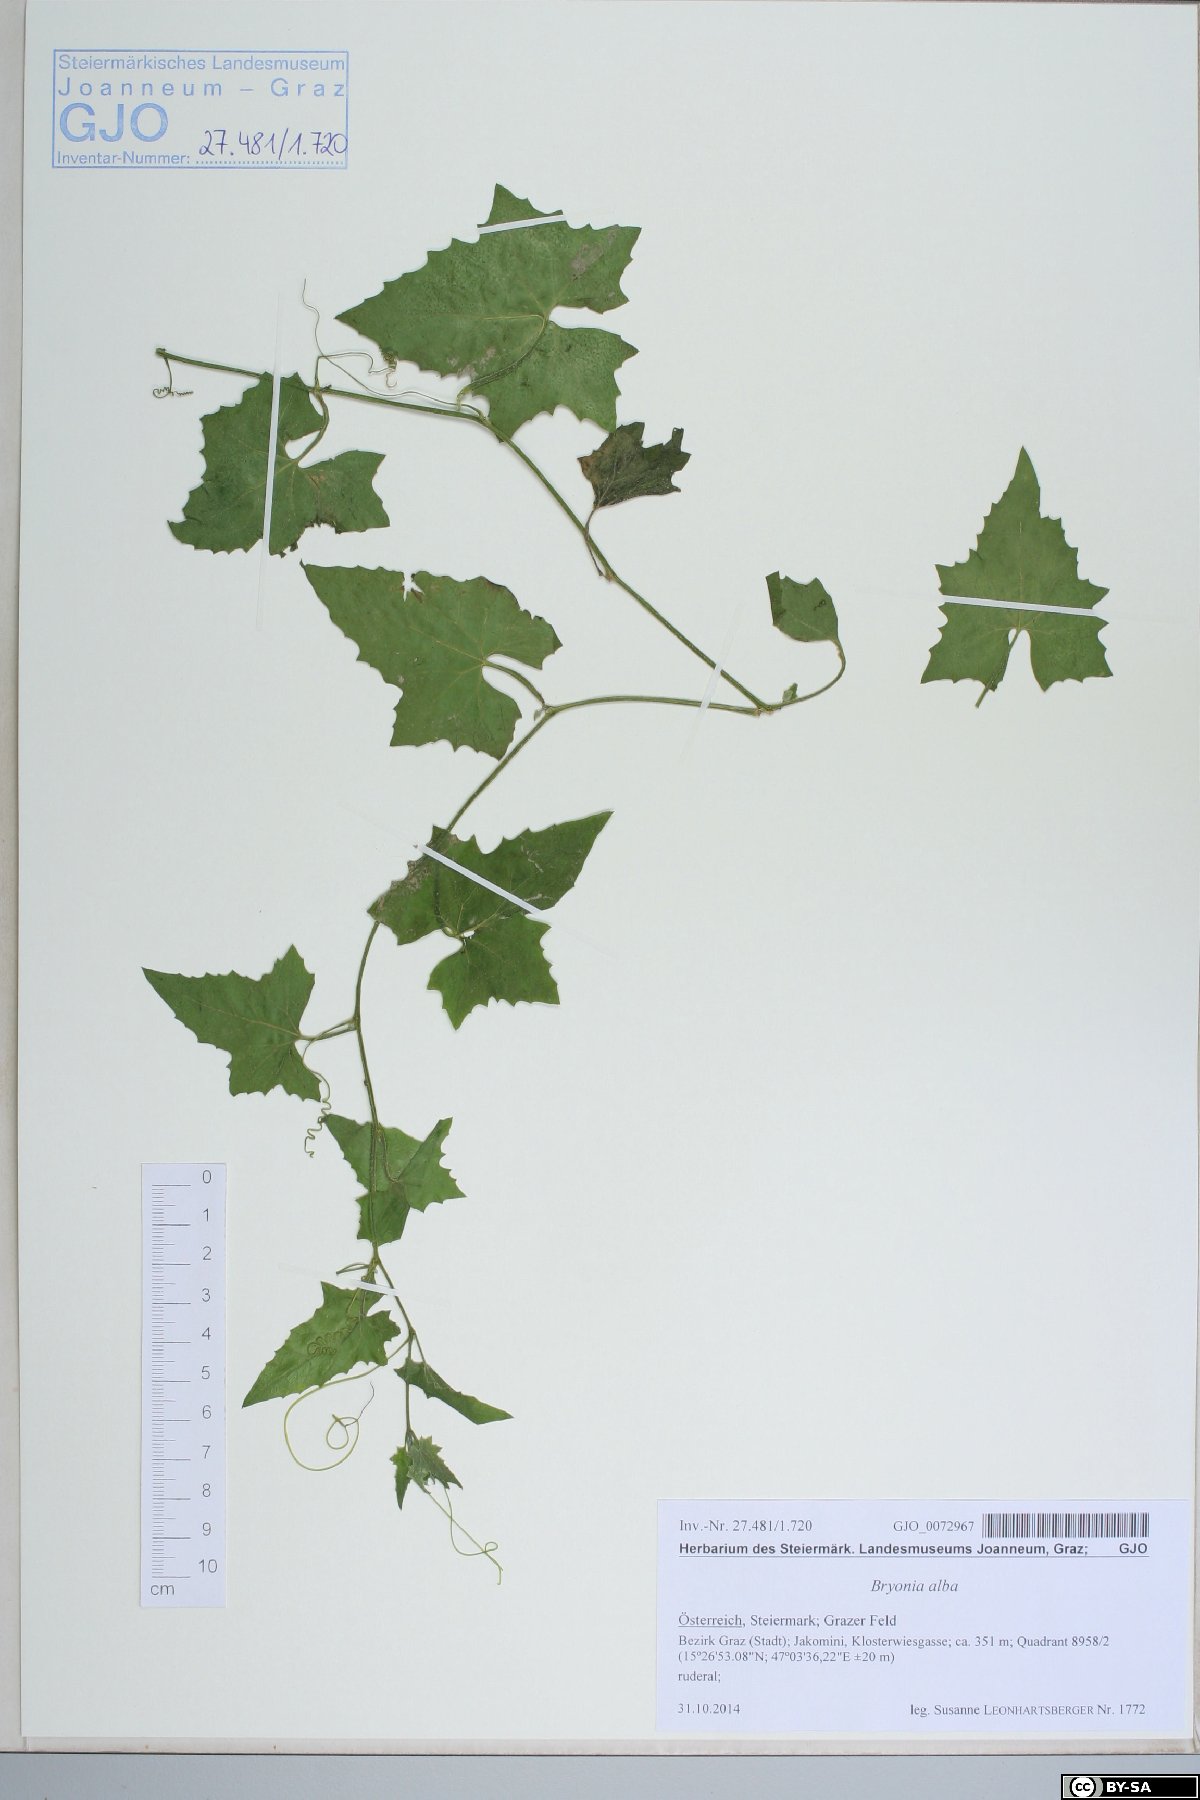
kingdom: Plantae
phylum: Tracheophyta
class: Magnoliopsida
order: Cucurbitales
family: Cucurbitaceae
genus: Bryonia
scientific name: Bryonia alba
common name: White bryony
